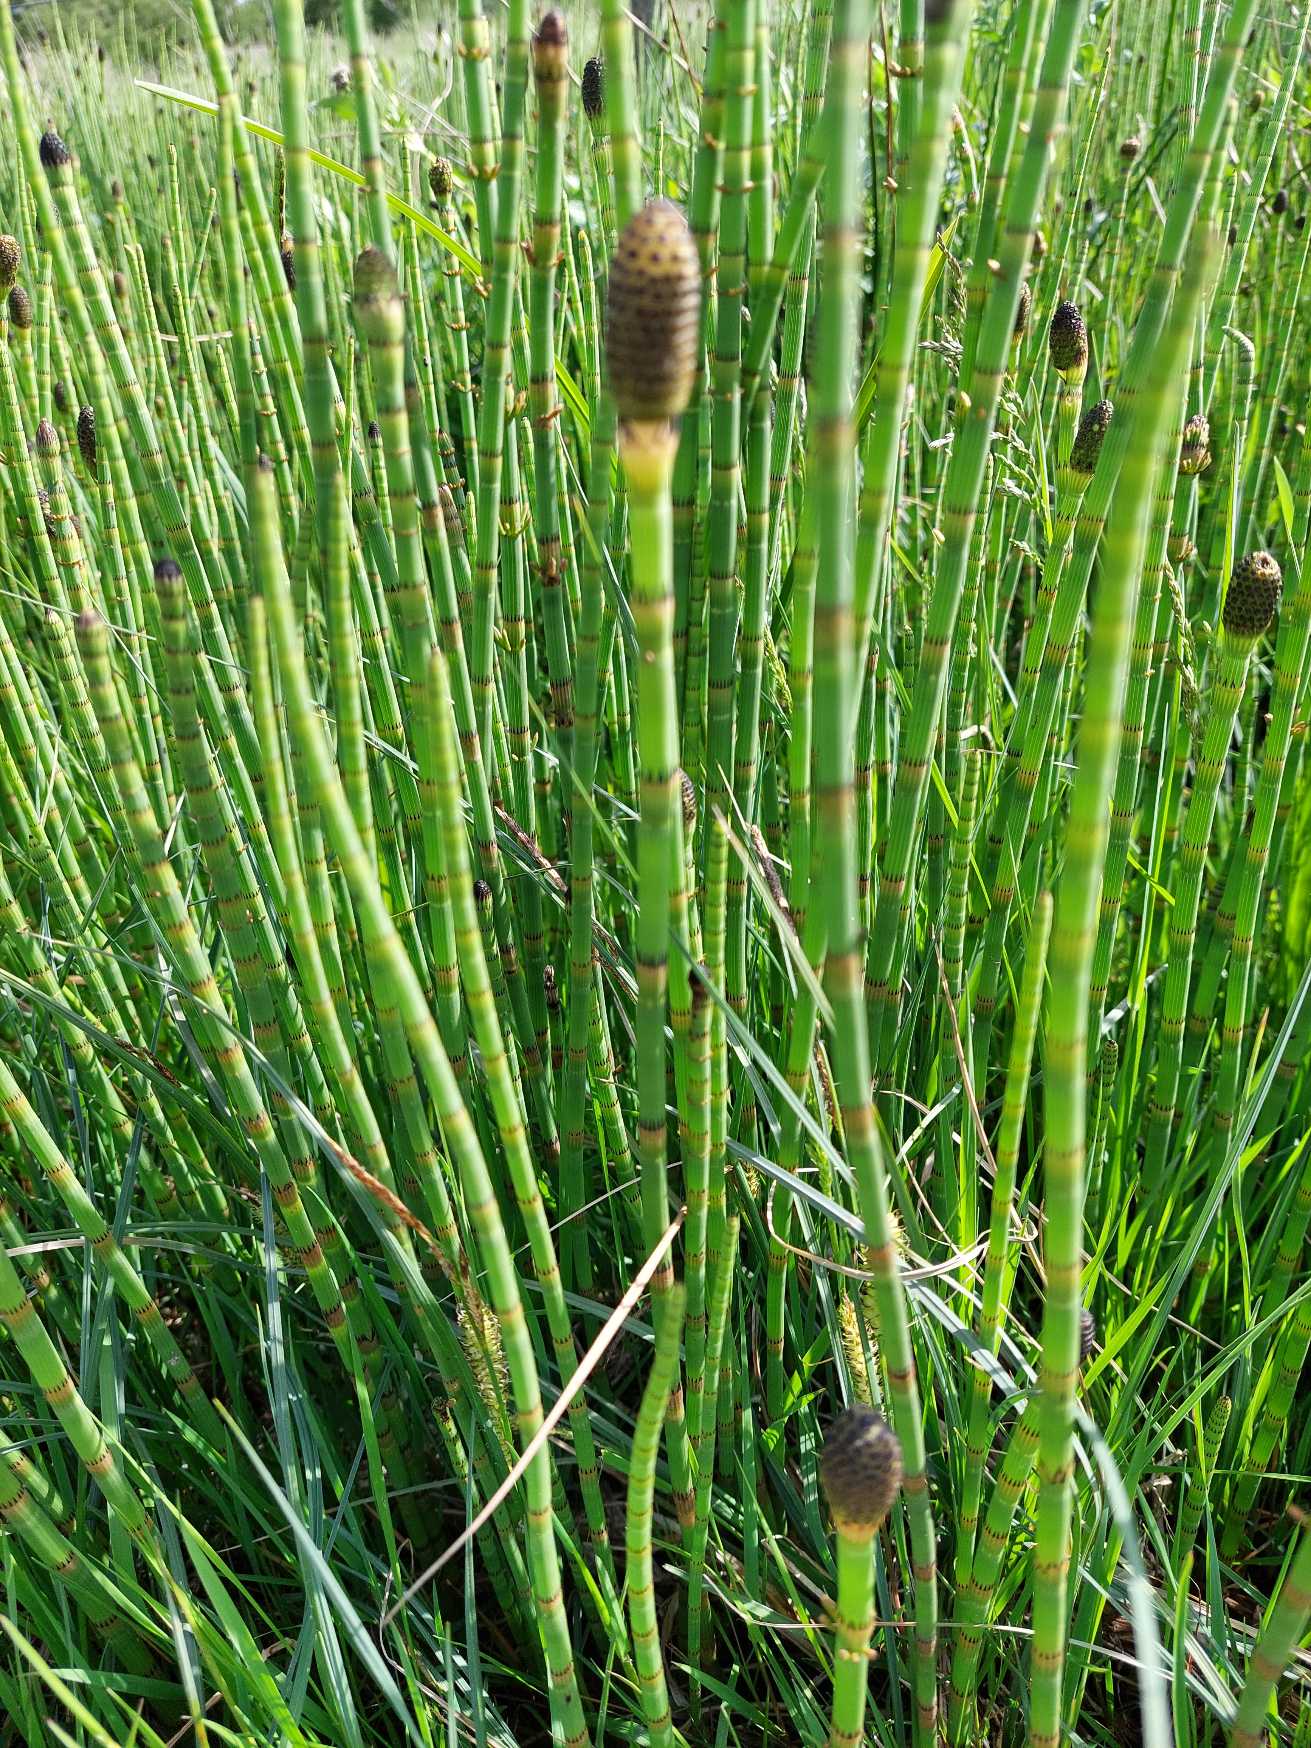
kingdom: Plantae
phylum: Tracheophyta
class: Polypodiopsida
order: Equisetales
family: Equisetaceae
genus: Equisetum
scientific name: Equisetum fluviatile
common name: Dynd-padderok
